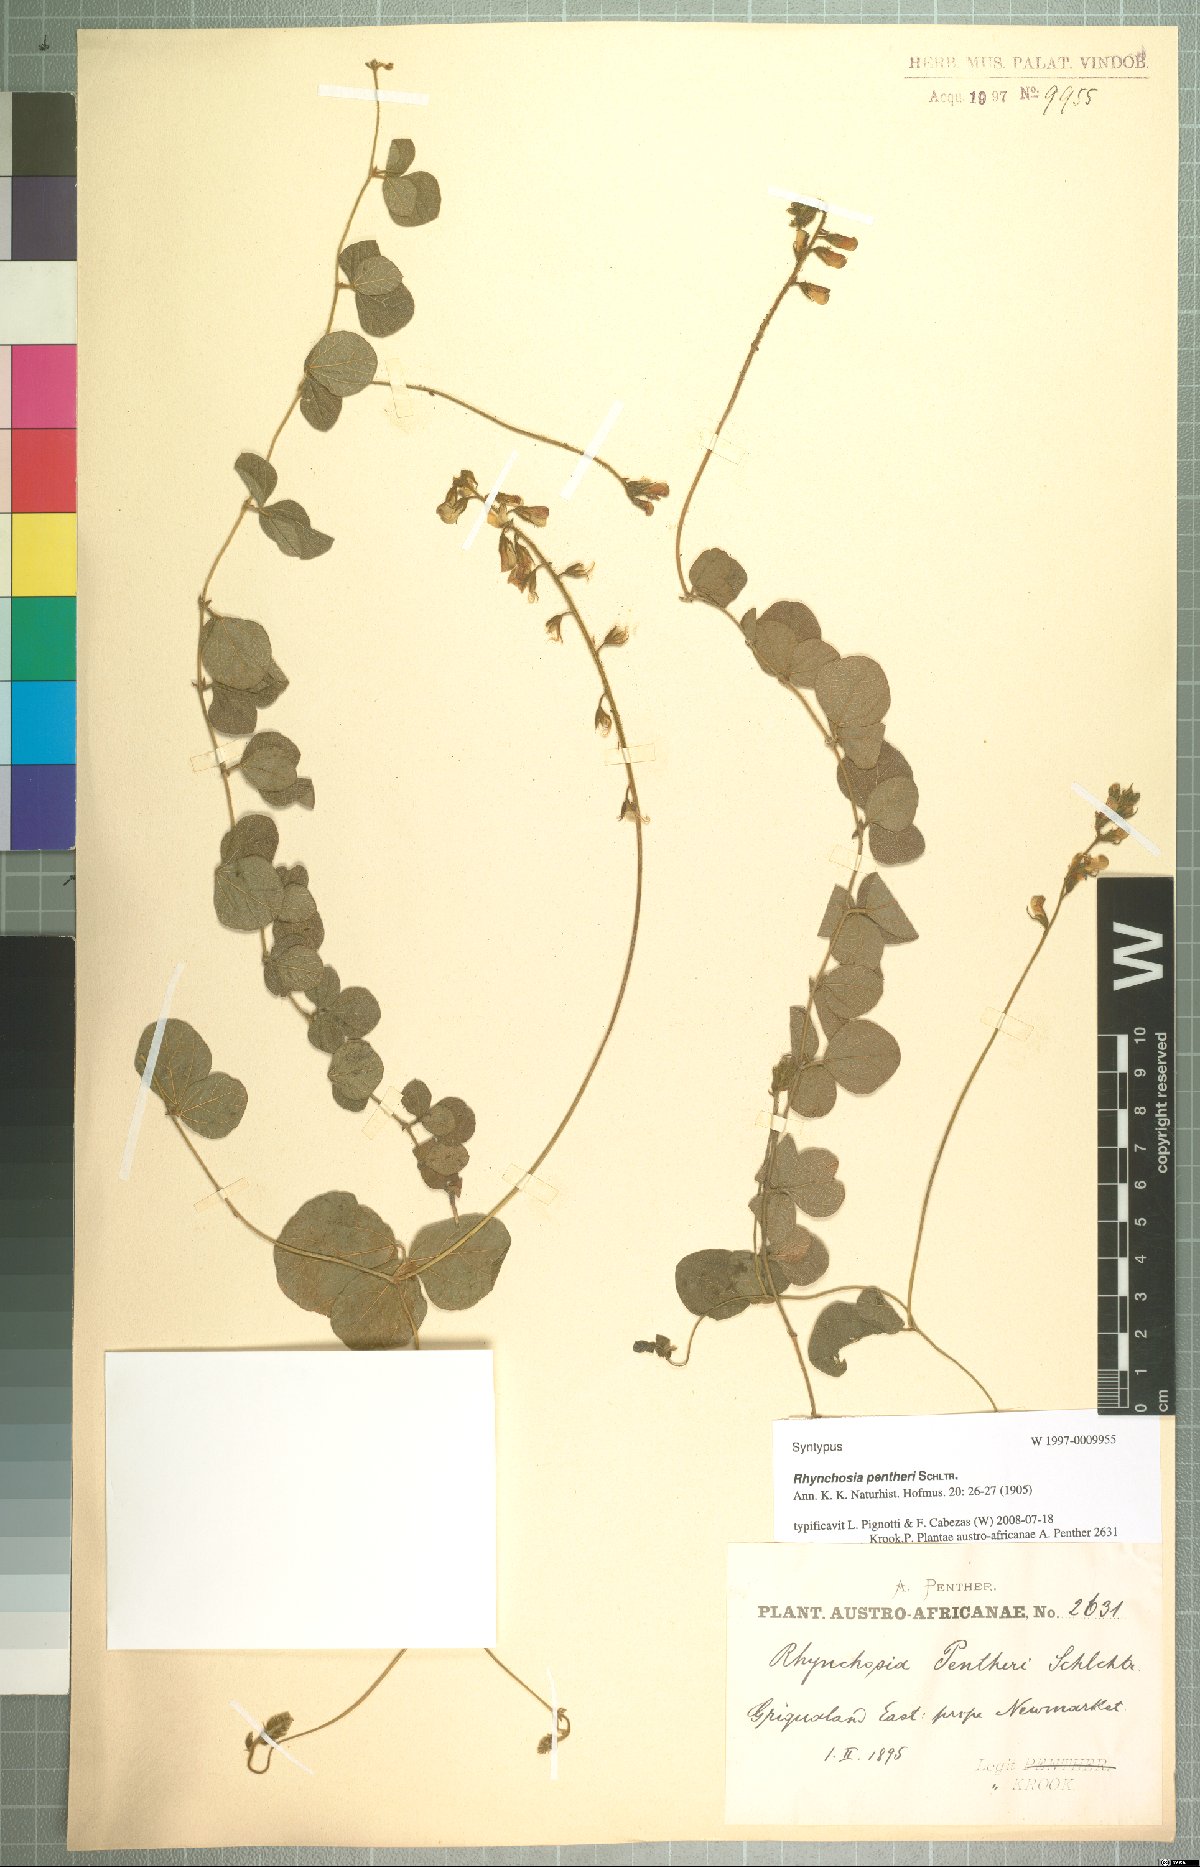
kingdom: Plantae
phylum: Tracheophyta
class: Magnoliopsida
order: Fabales
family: Fabaceae
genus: Rhynchosia
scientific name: Rhynchosia pentheri
